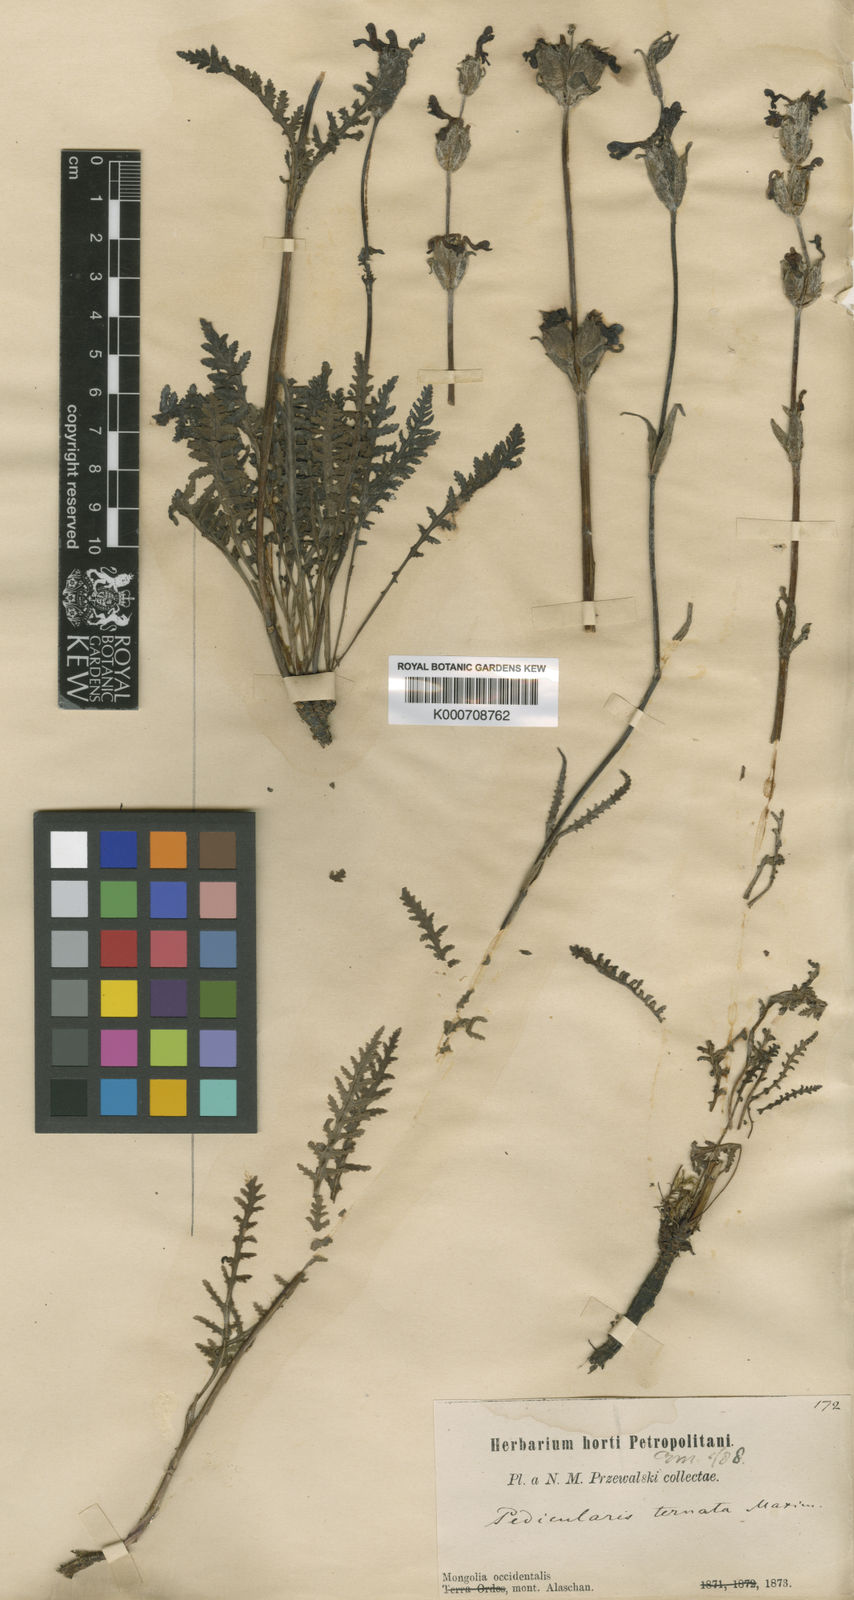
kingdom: Plantae
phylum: Tracheophyta
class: Magnoliopsida
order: Lamiales
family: Orobanchaceae
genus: Pedicularis
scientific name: Pedicularis ternata
